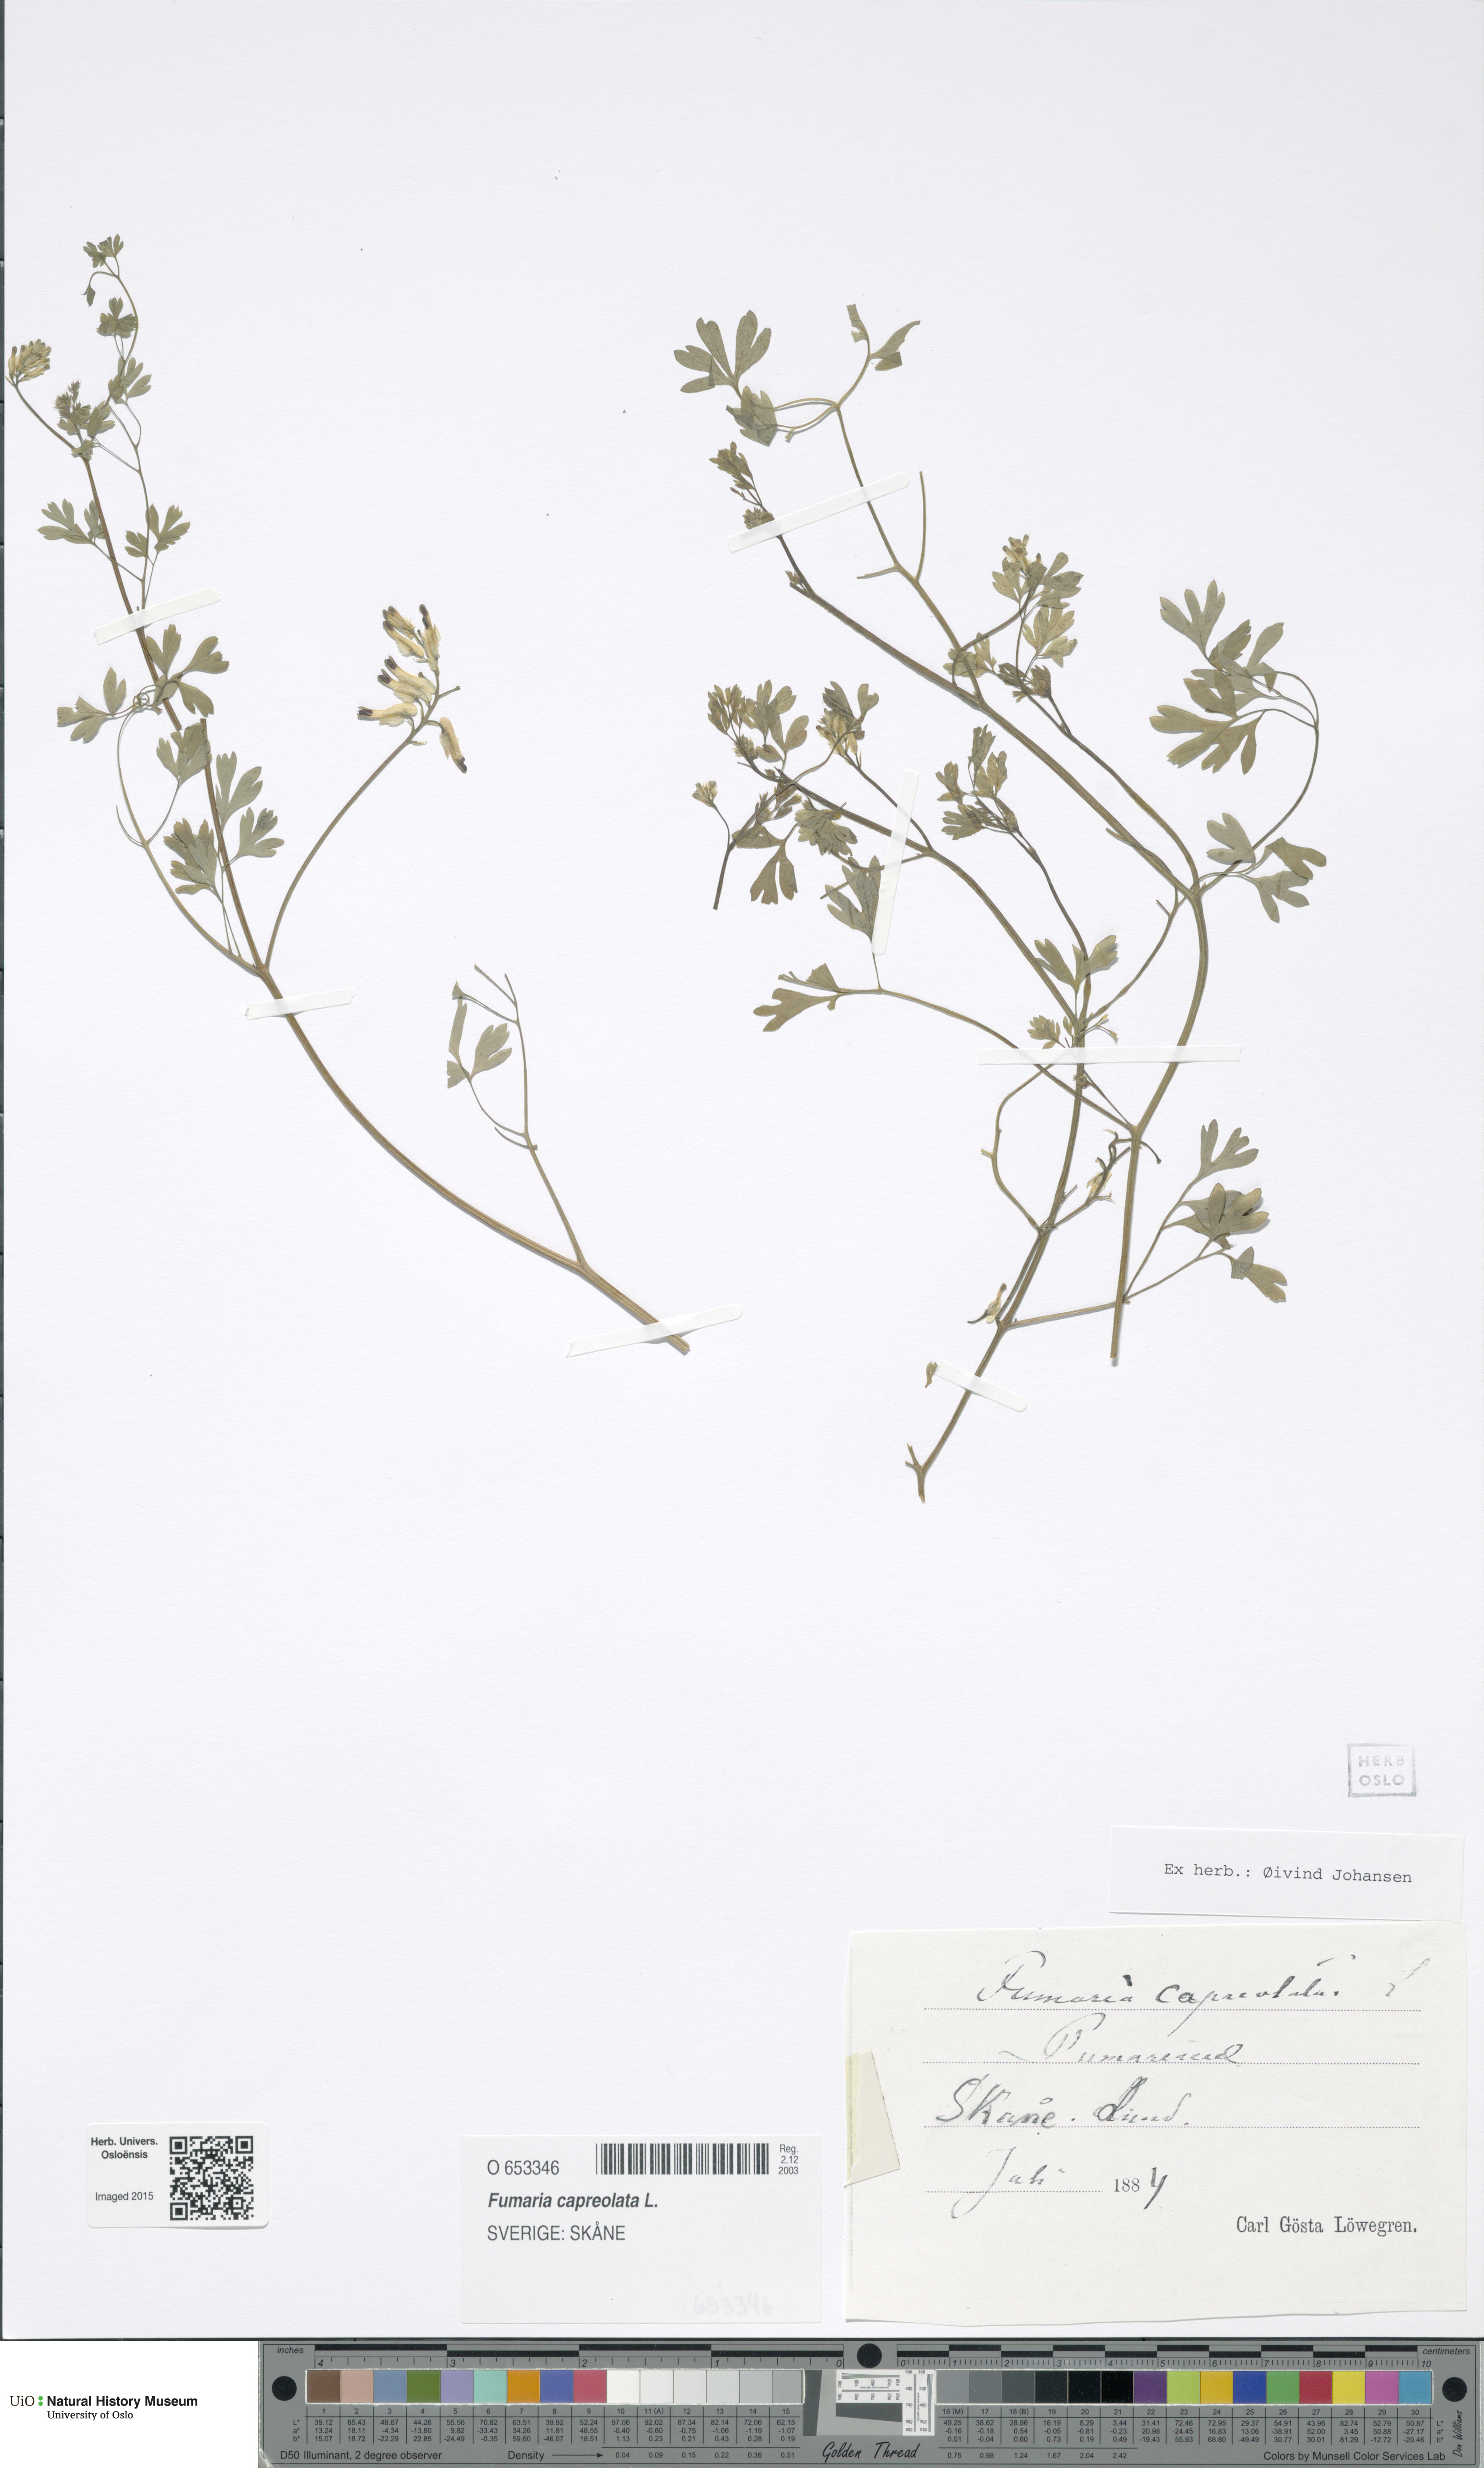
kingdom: Plantae
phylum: Tracheophyta
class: Magnoliopsida
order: Ranunculales
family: Papaveraceae
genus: Fumaria
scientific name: Fumaria capreolata
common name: White ramping-fumitory
